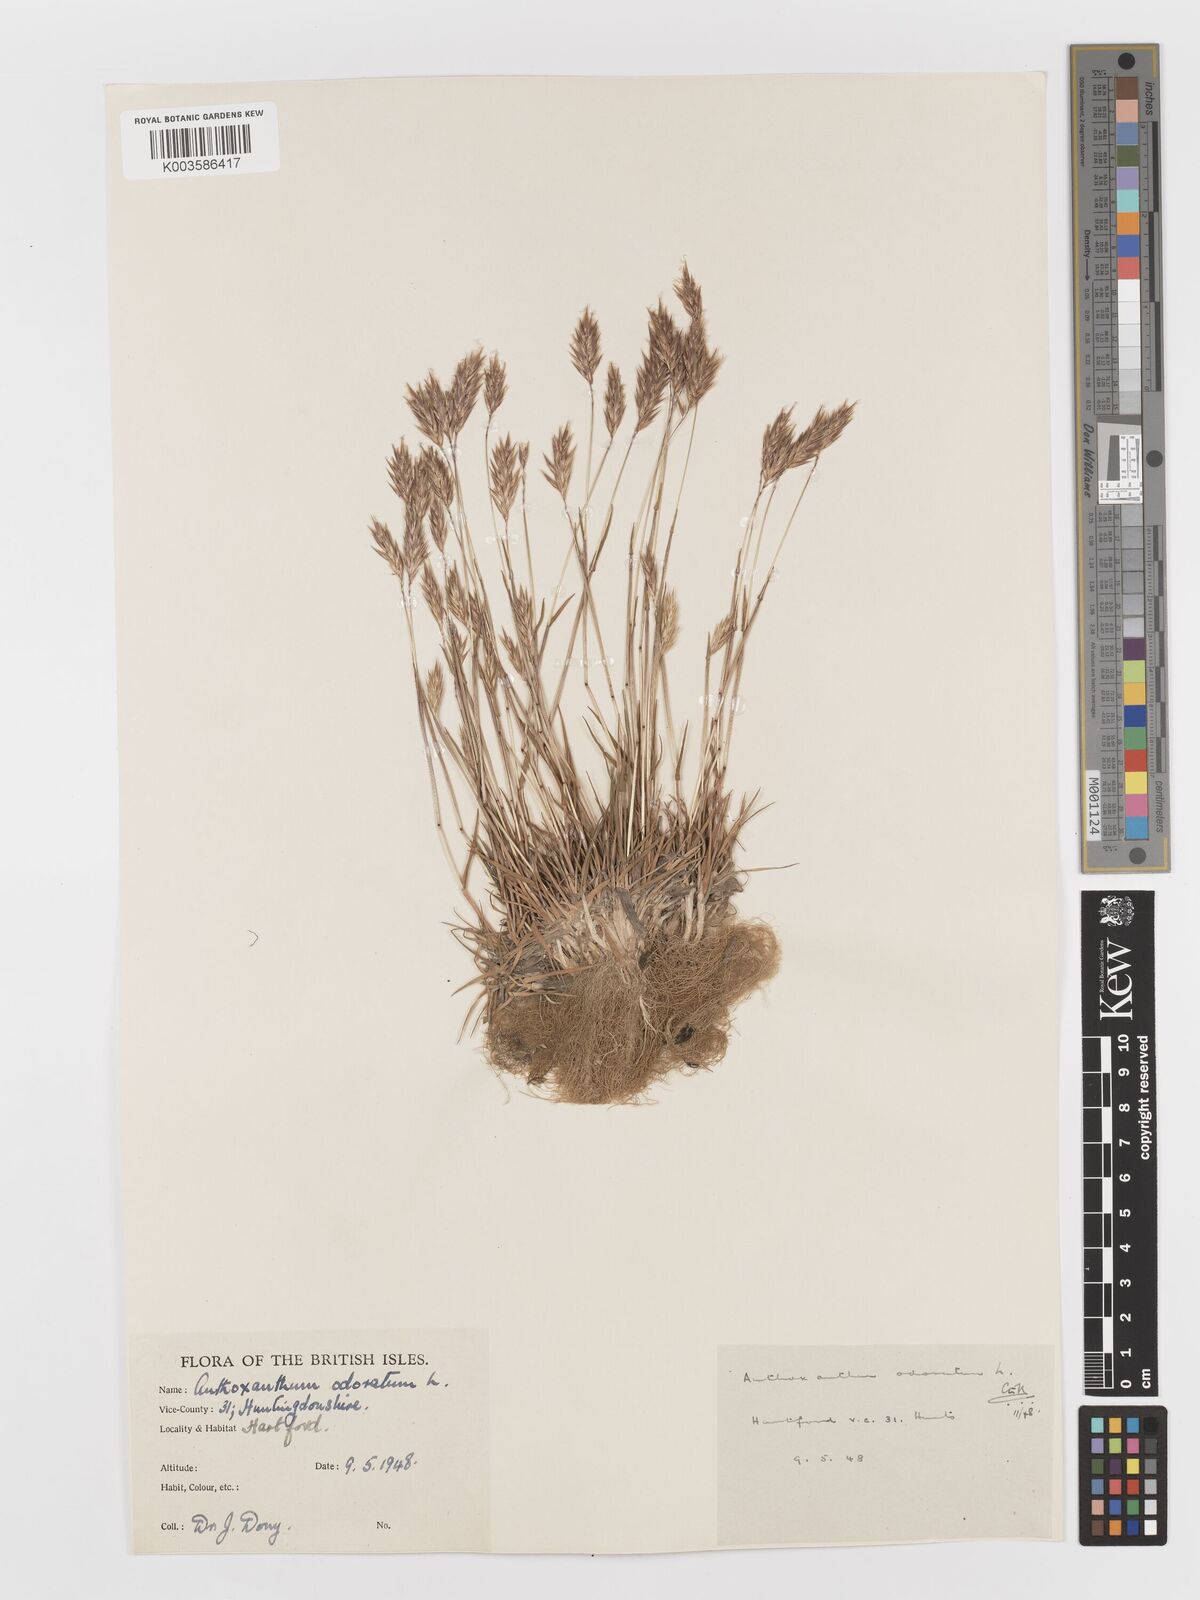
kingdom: Plantae
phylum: Tracheophyta
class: Liliopsida
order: Poales
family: Poaceae
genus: Anthoxanthum
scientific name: Anthoxanthum odoratum
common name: Sweet vernalgrass
